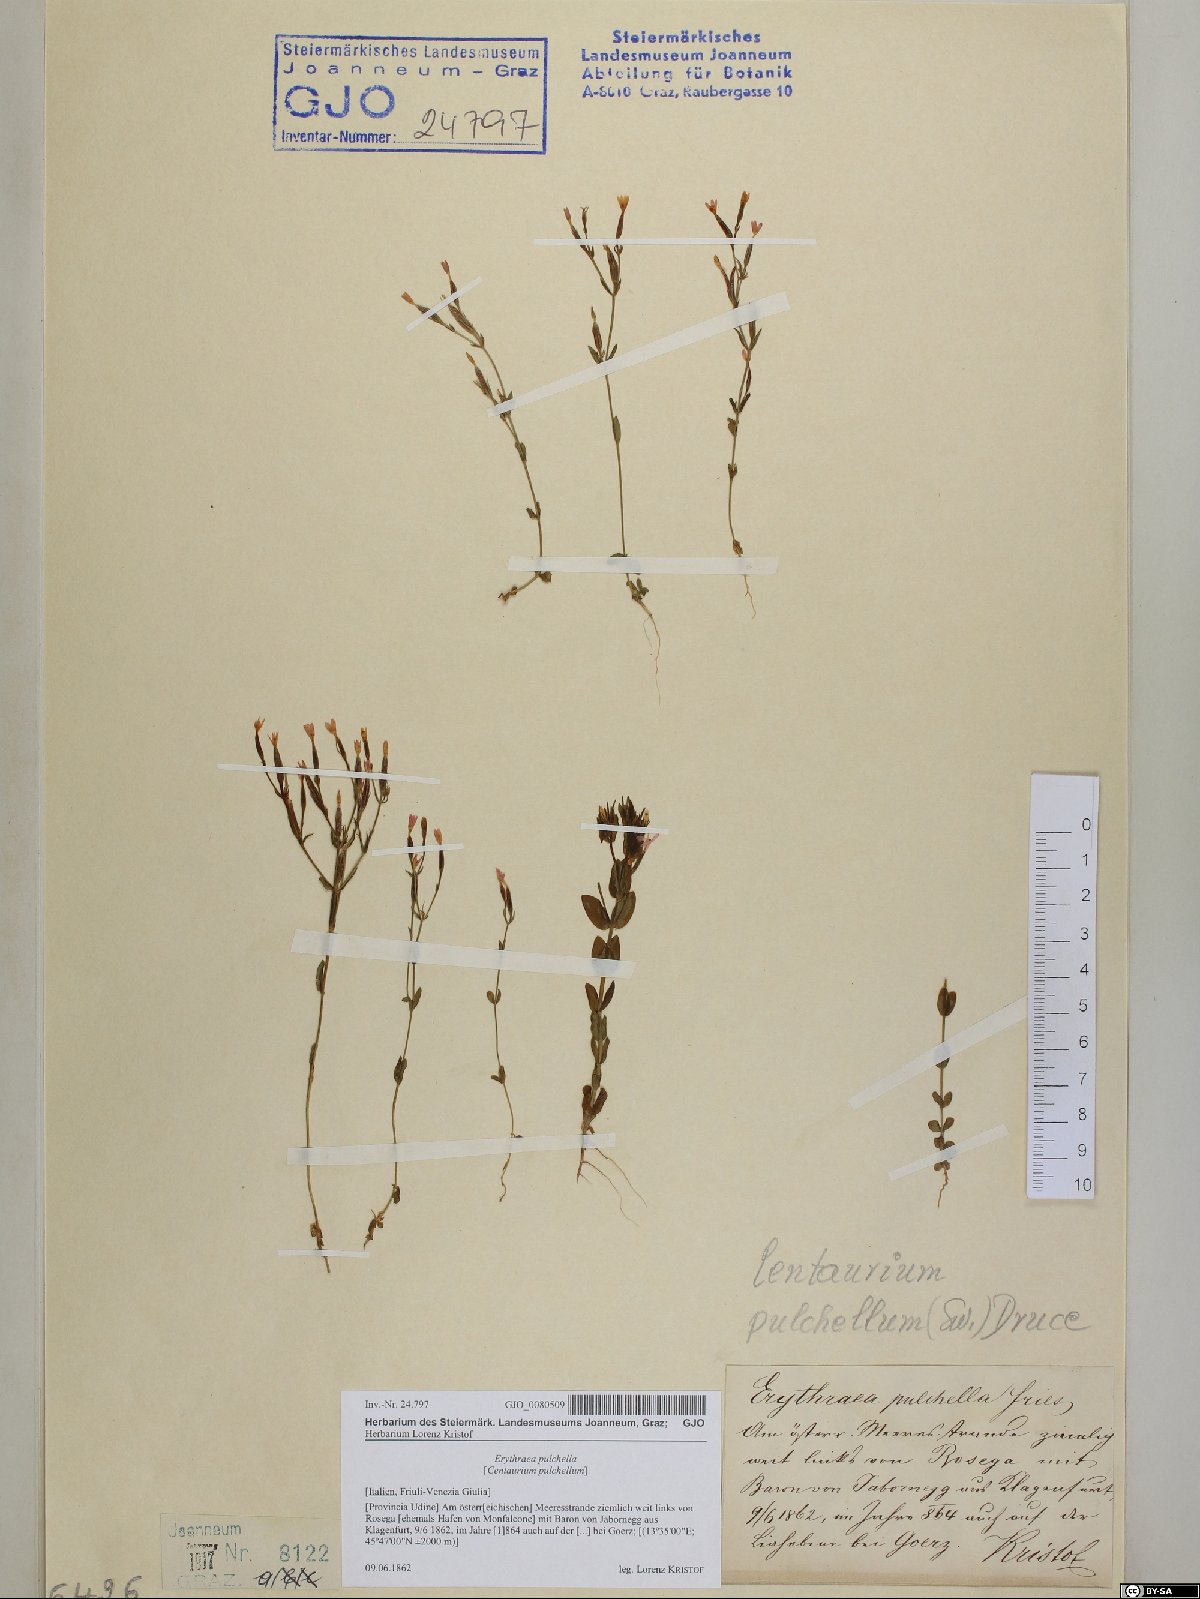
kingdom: Plantae
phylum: Tracheophyta
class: Magnoliopsida
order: Gentianales
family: Gentianaceae
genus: Centaurium
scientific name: Centaurium pulchellum
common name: Lesser centaury
